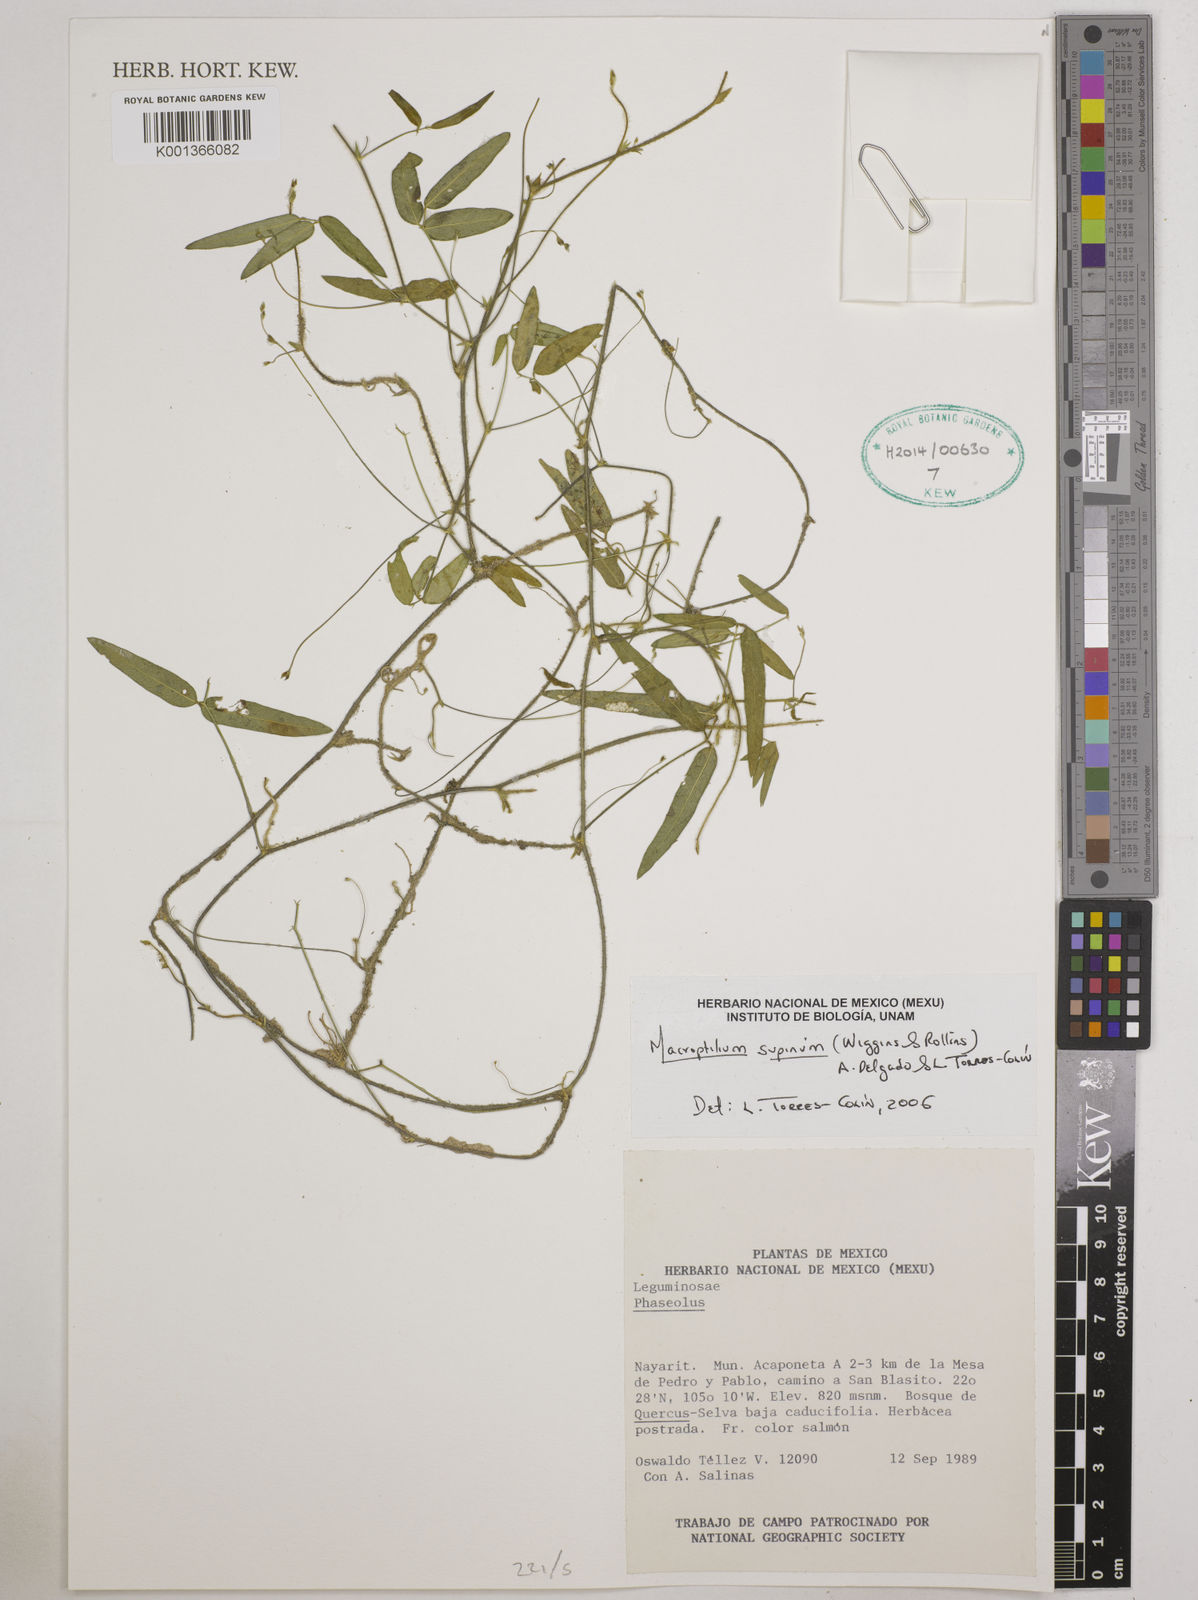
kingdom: Plantae
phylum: Tracheophyta
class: Magnoliopsida
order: Fabales
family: Fabaceae
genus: Macroptilium
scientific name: Macroptilium supinum
